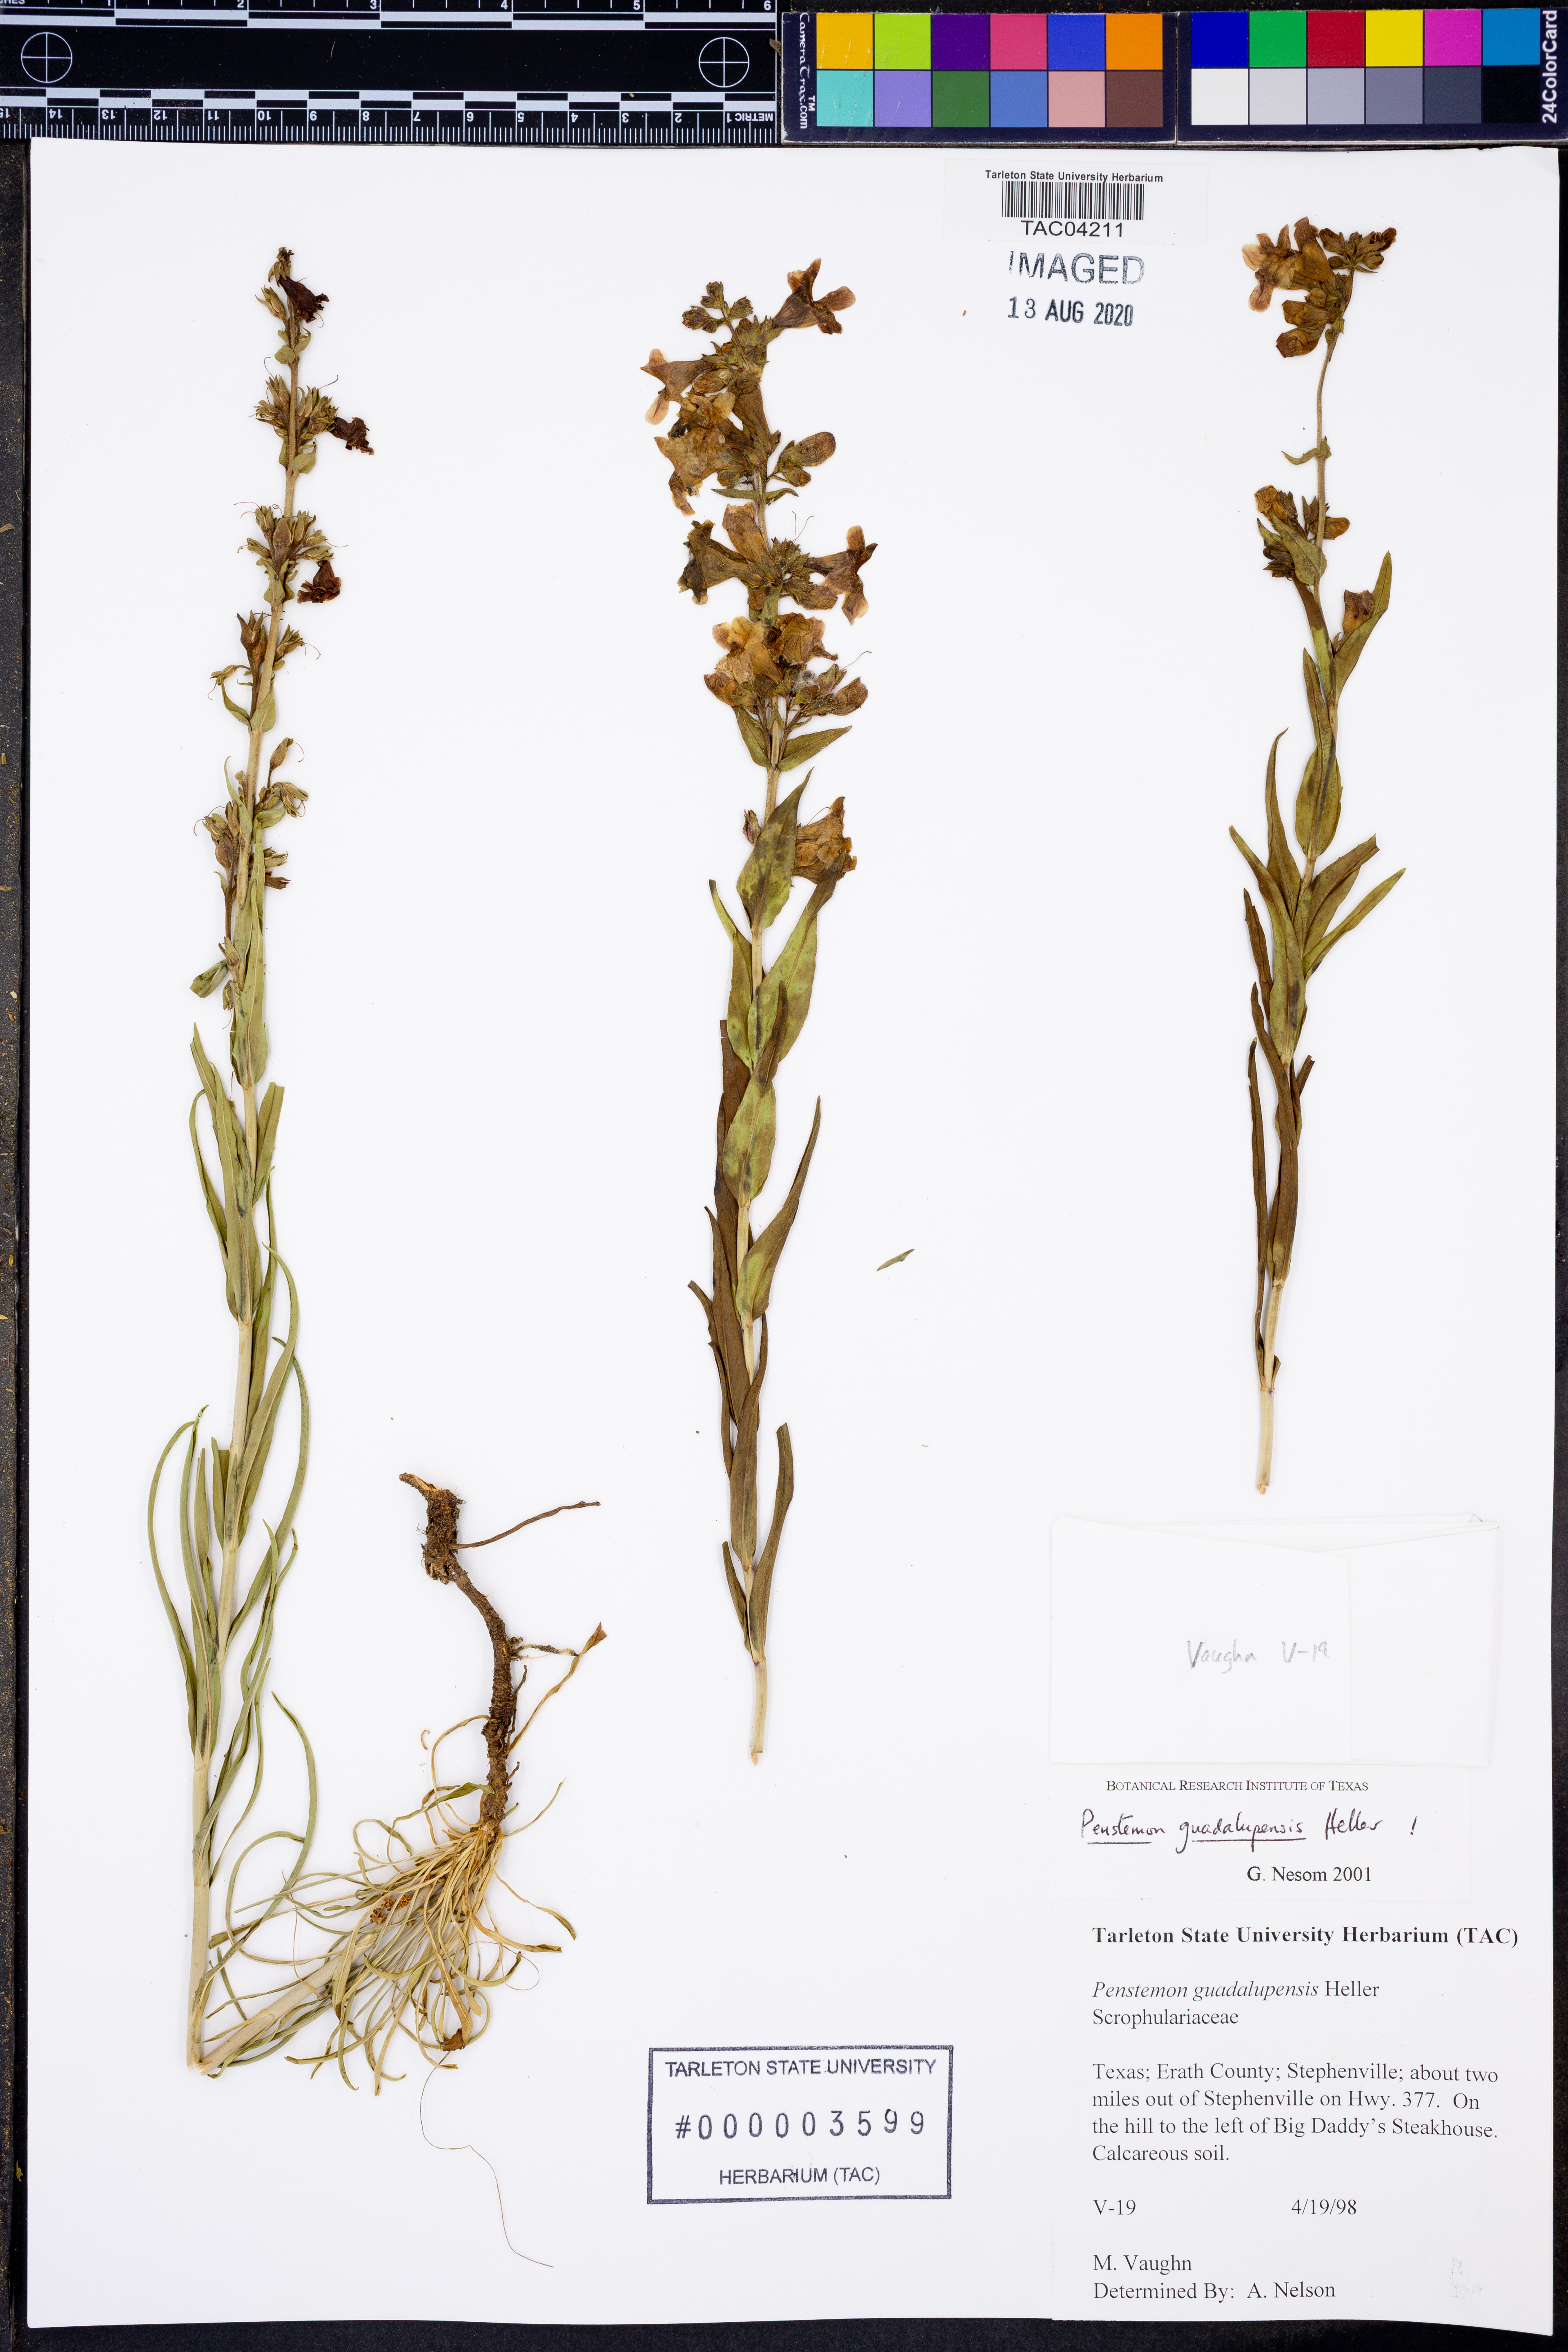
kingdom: Plantae
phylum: Tracheophyta
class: Magnoliopsida
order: Lamiales
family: Plantaginaceae
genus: Penstemon
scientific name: Penstemon guadalupensis
